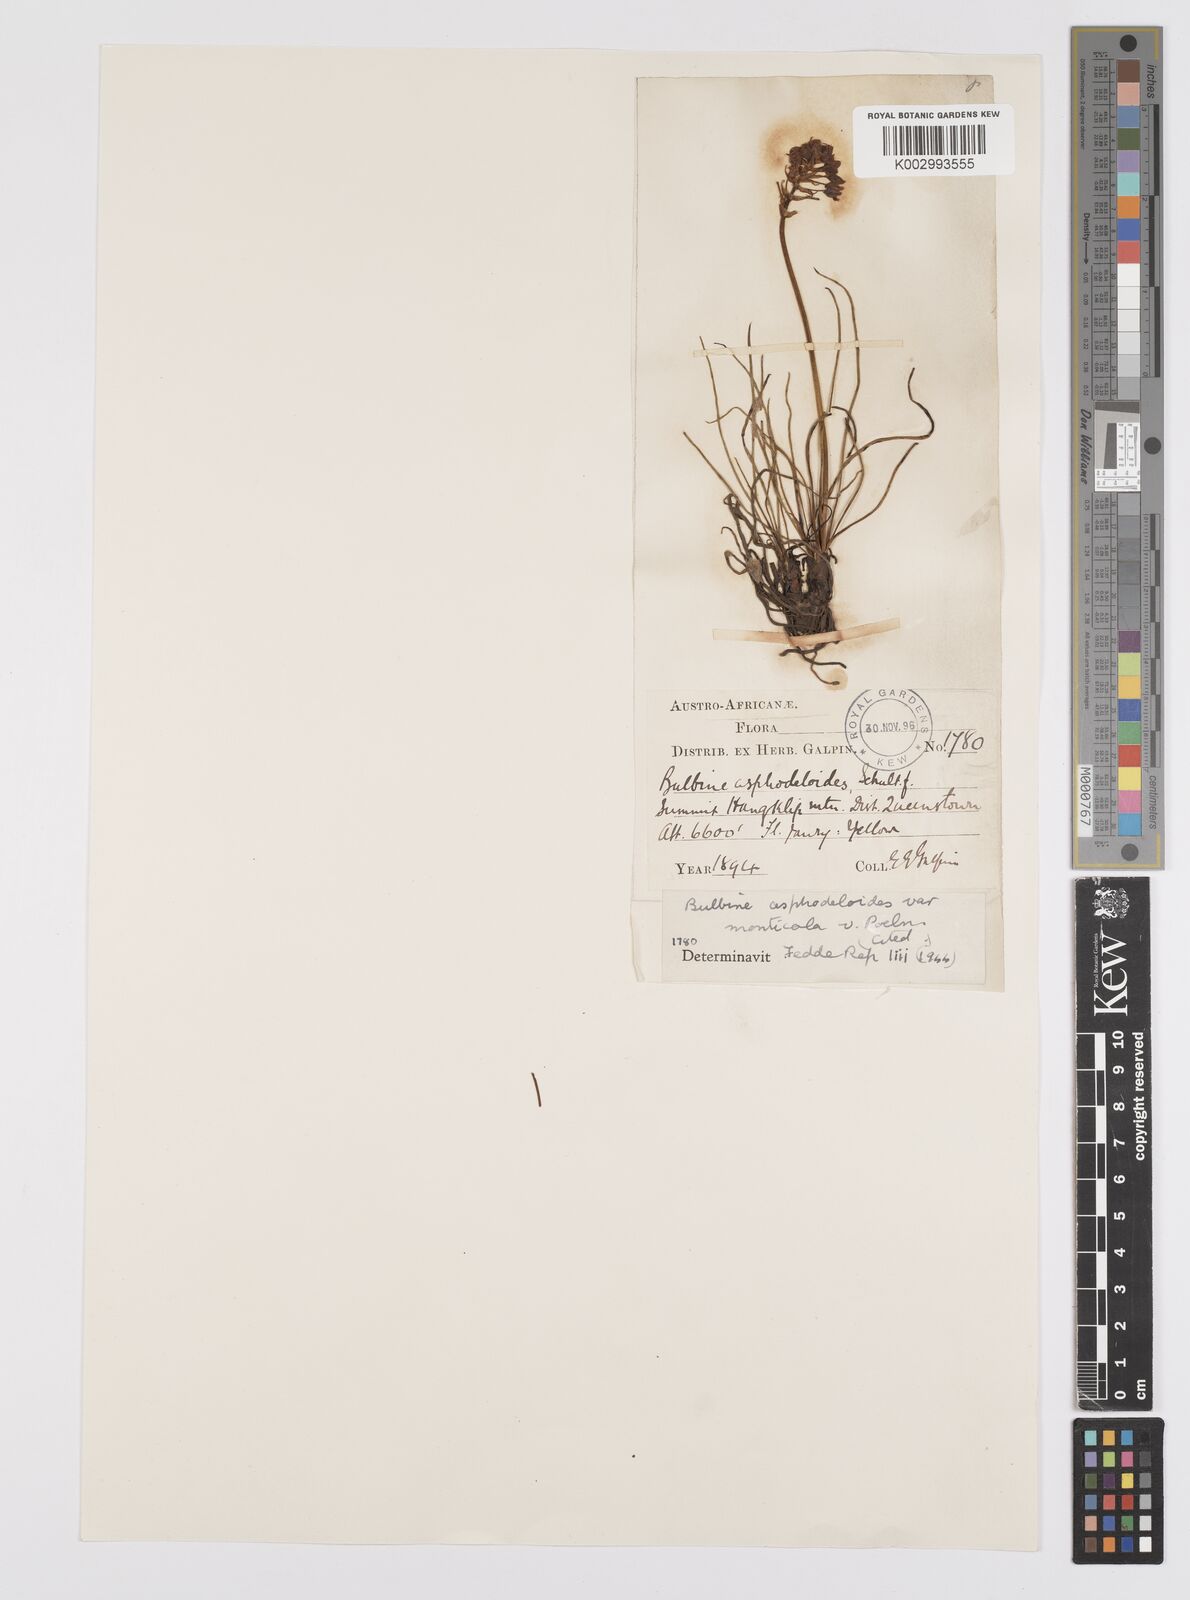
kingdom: Plantae
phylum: Tracheophyta
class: Liliopsida
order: Asparagales
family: Asphodelaceae
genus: Bulbine
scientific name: Bulbine abyssinica
